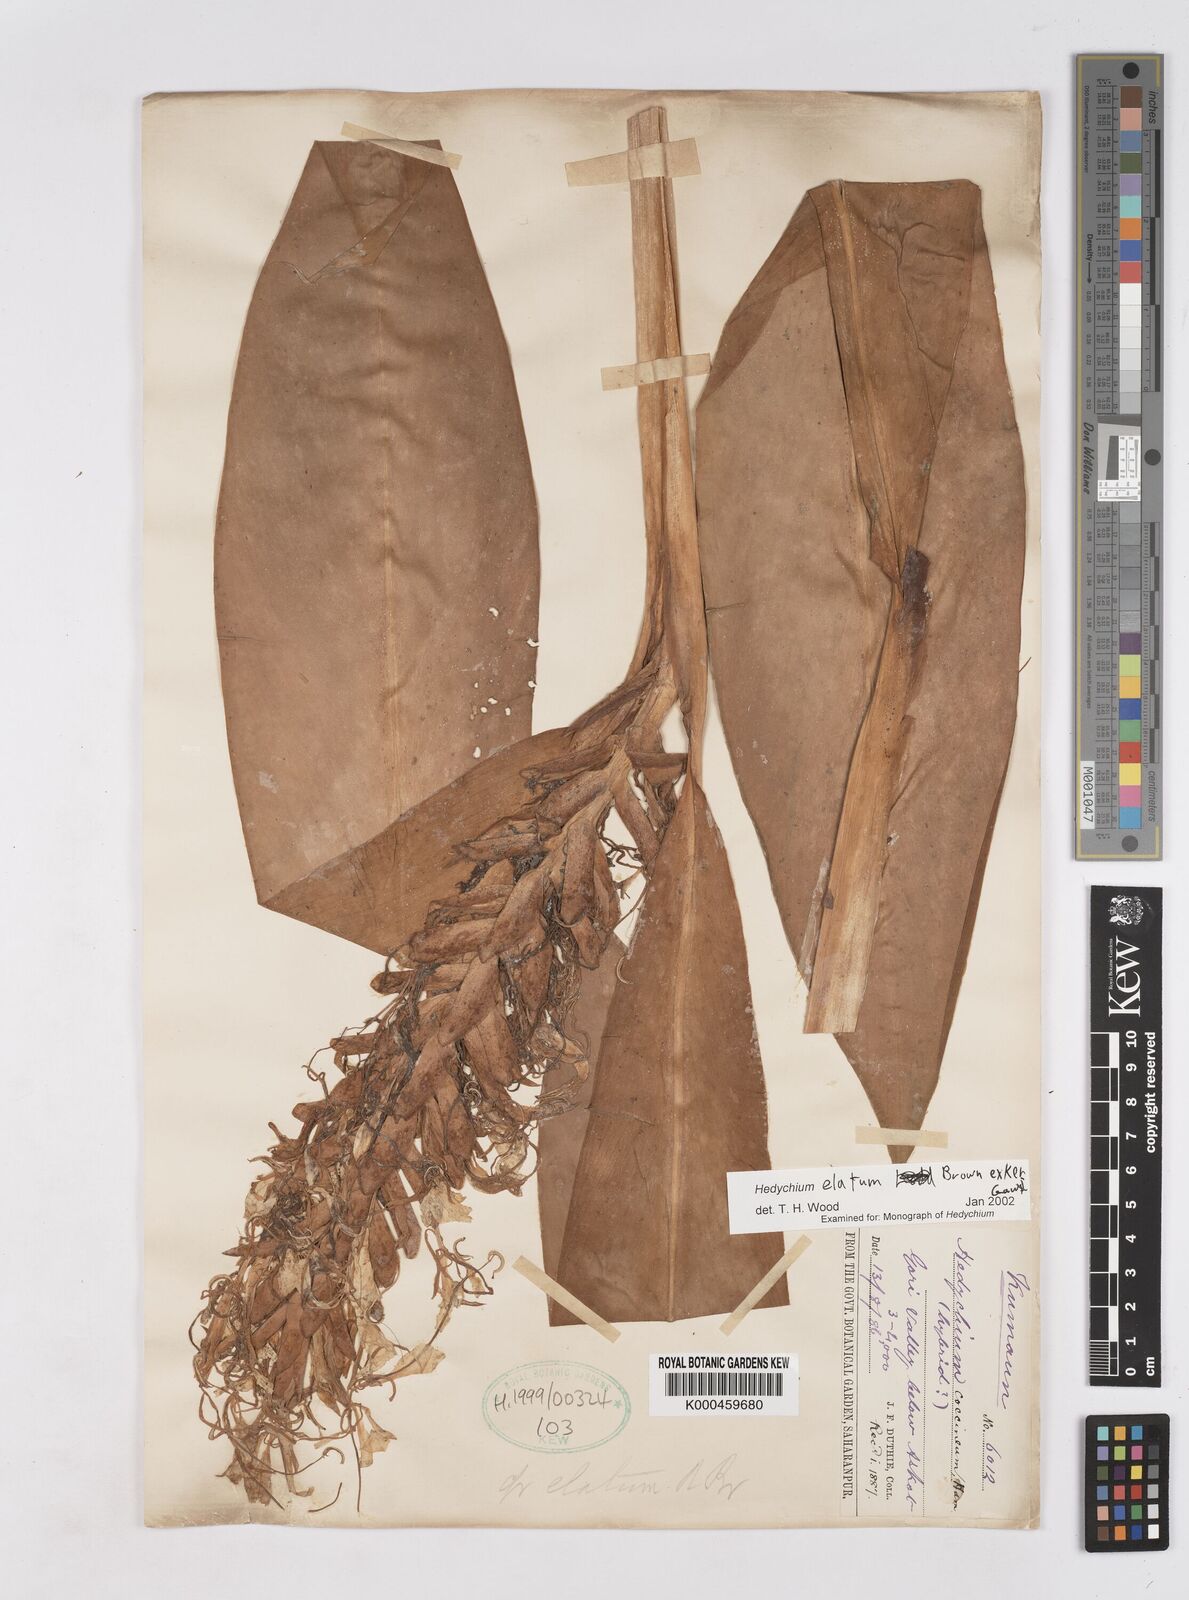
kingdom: Plantae
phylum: Tracheophyta
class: Liliopsida
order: Zingiberales
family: Zingiberaceae
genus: Hedychium
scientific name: Hedychium elatum
